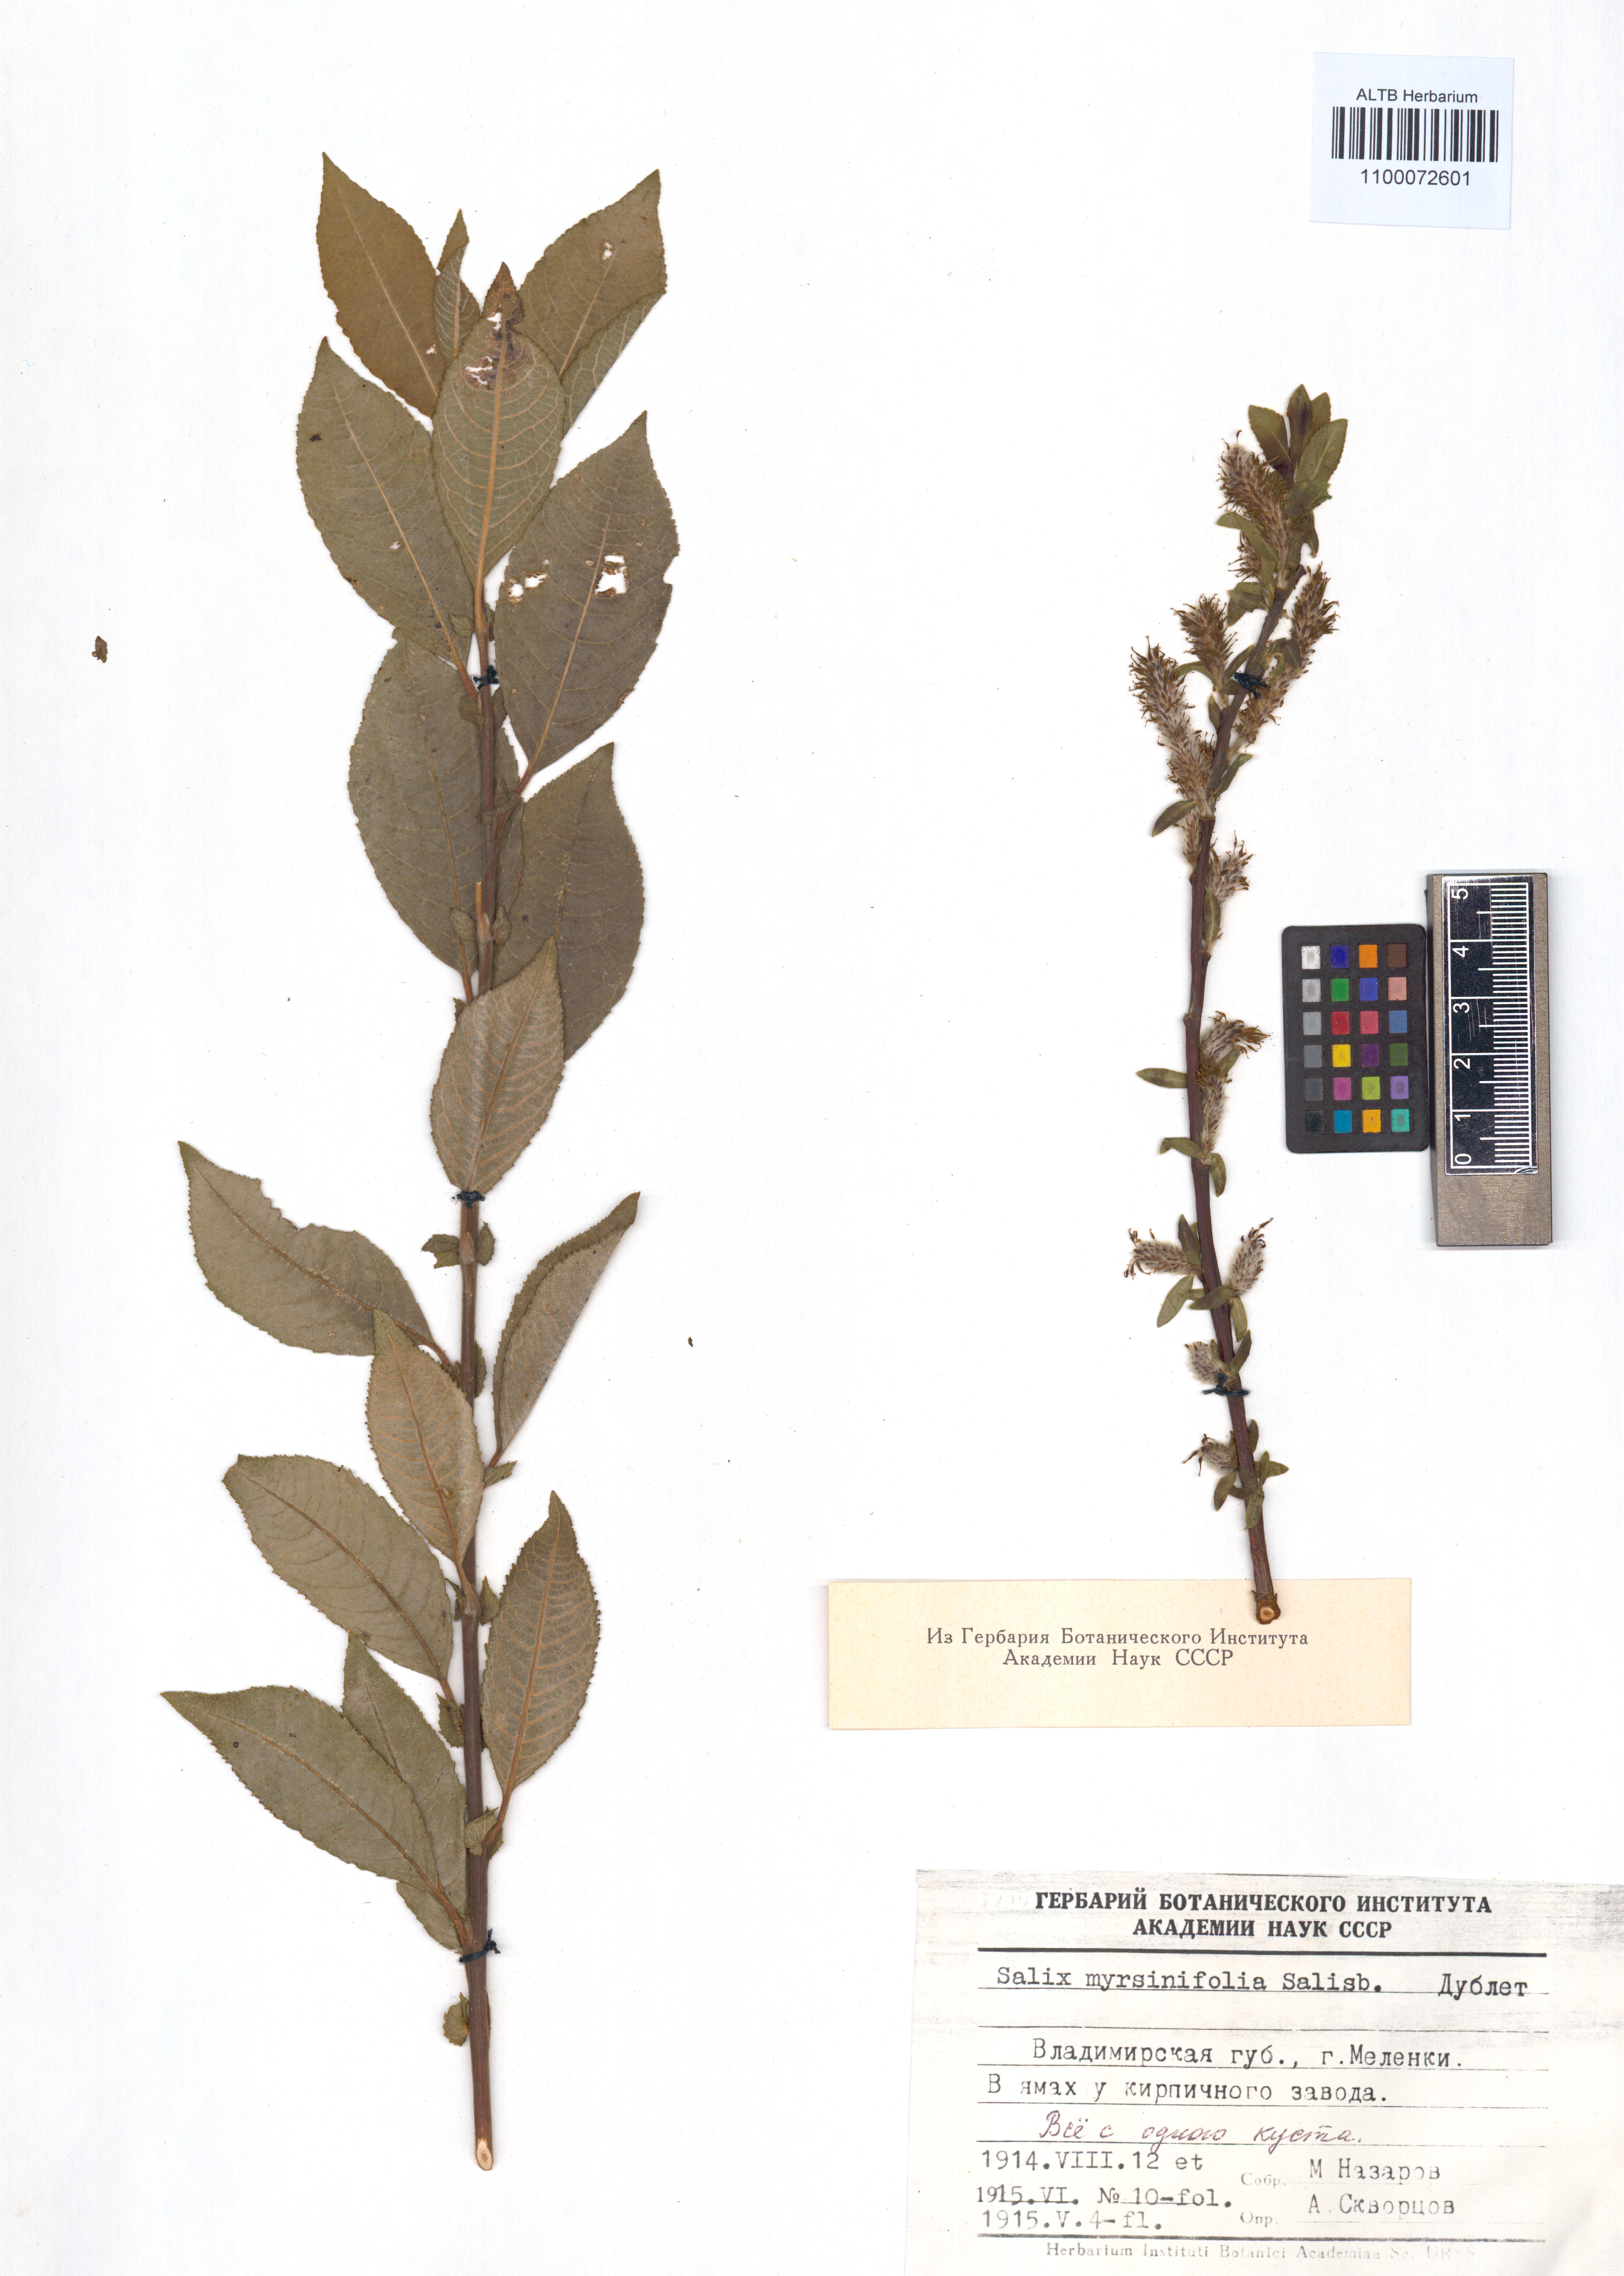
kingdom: Plantae
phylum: Tracheophyta
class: Magnoliopsida
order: Malpighiales
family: Salicaceae
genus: Salix
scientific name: Salix myrsinifolia
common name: Dark-leaved willow
